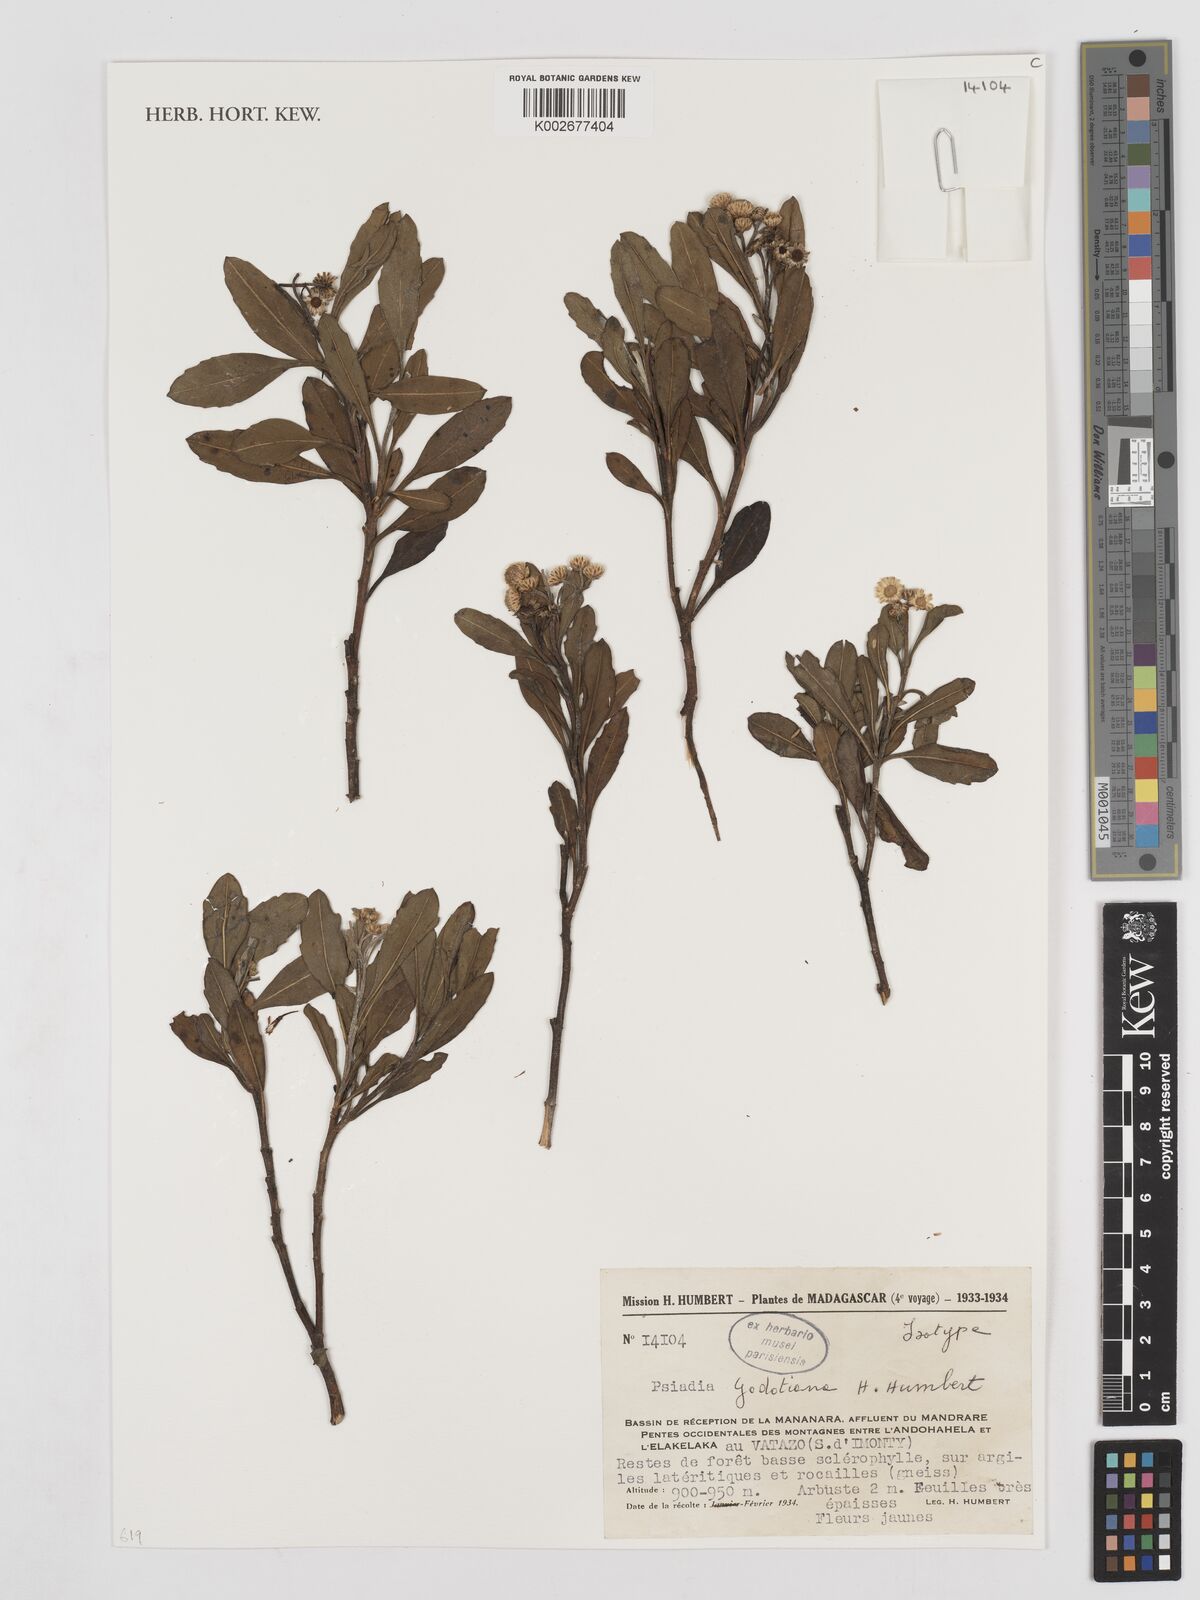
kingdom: Plantae
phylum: Tracheophyta
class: Magnoliopsida
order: Asterales
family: Asteraceae
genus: Psiadia
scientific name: Psiadia godotiana
